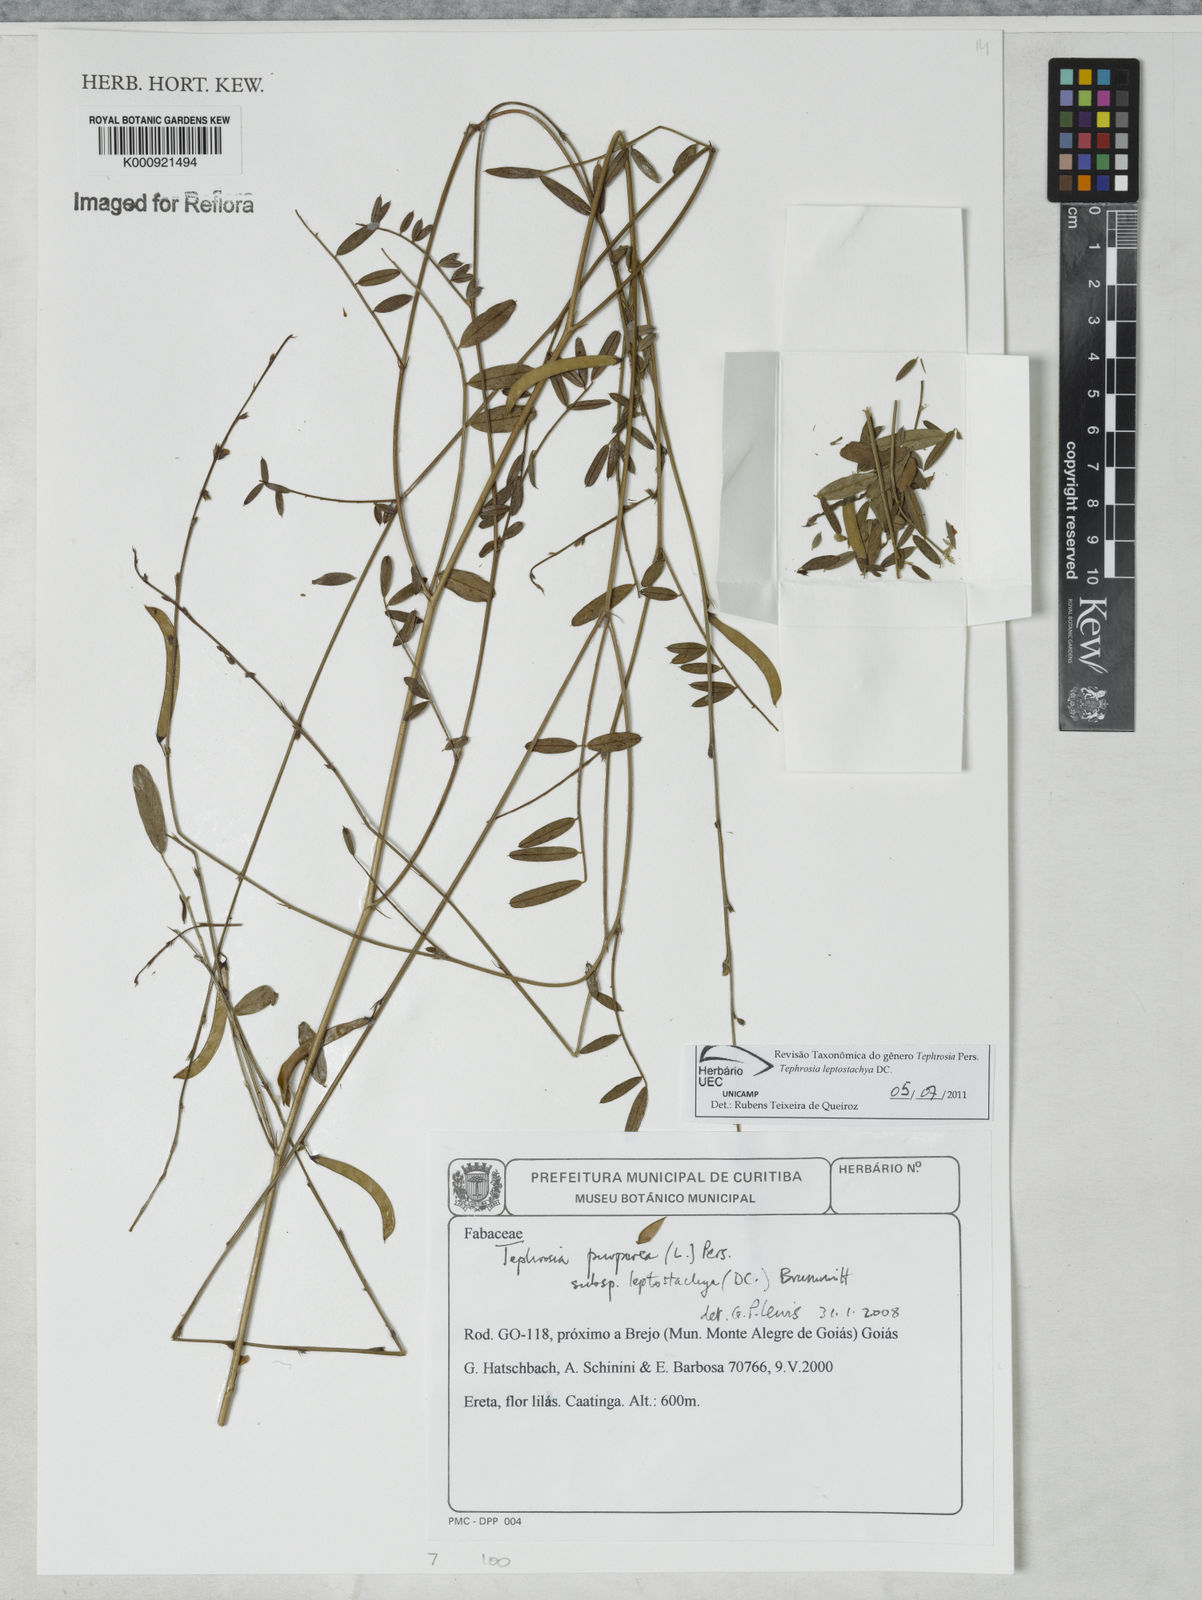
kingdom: Plantae
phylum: Tracheophyta
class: Magnoliopsida
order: Fabales
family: Fabaceae
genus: Tephrosia
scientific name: Tephrosia purpurea
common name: Fishpoison
